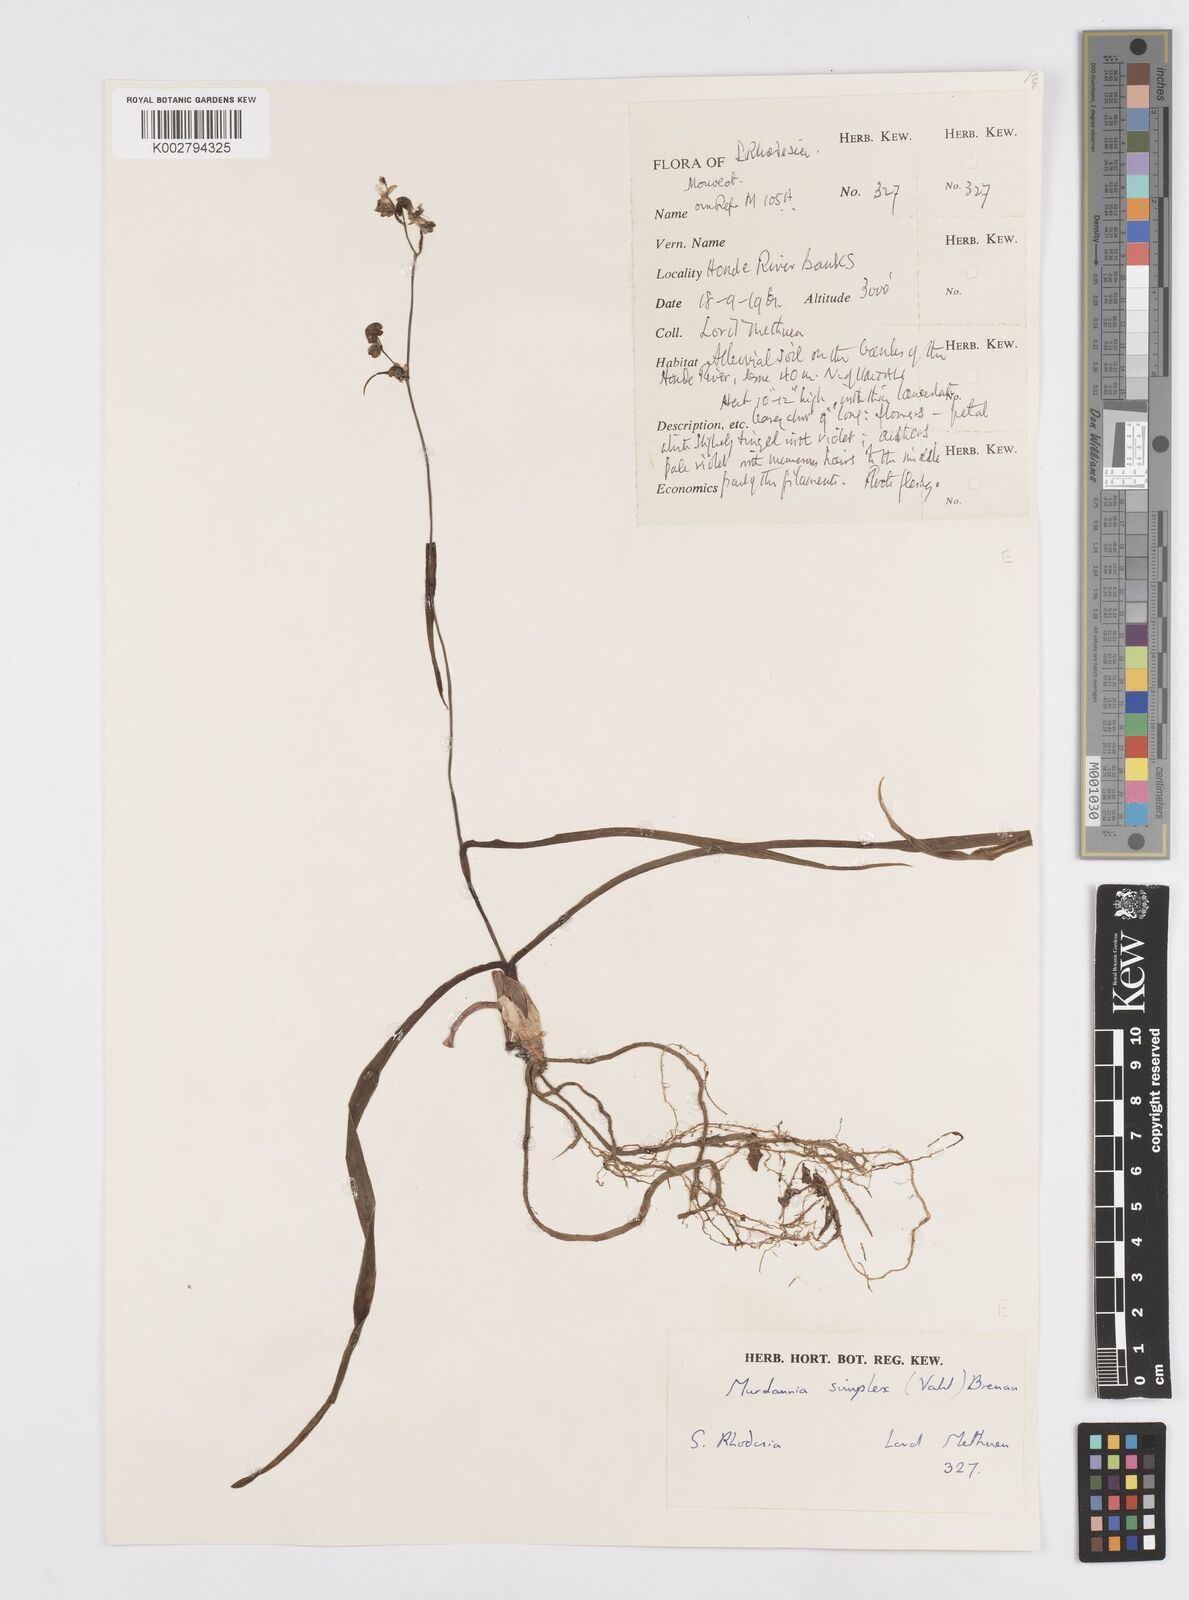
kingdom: Plantae
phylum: Tracheophyta
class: Liliopsida
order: Commelinales
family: Commelinaceae
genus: Murdannia
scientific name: Murdannia simplex
